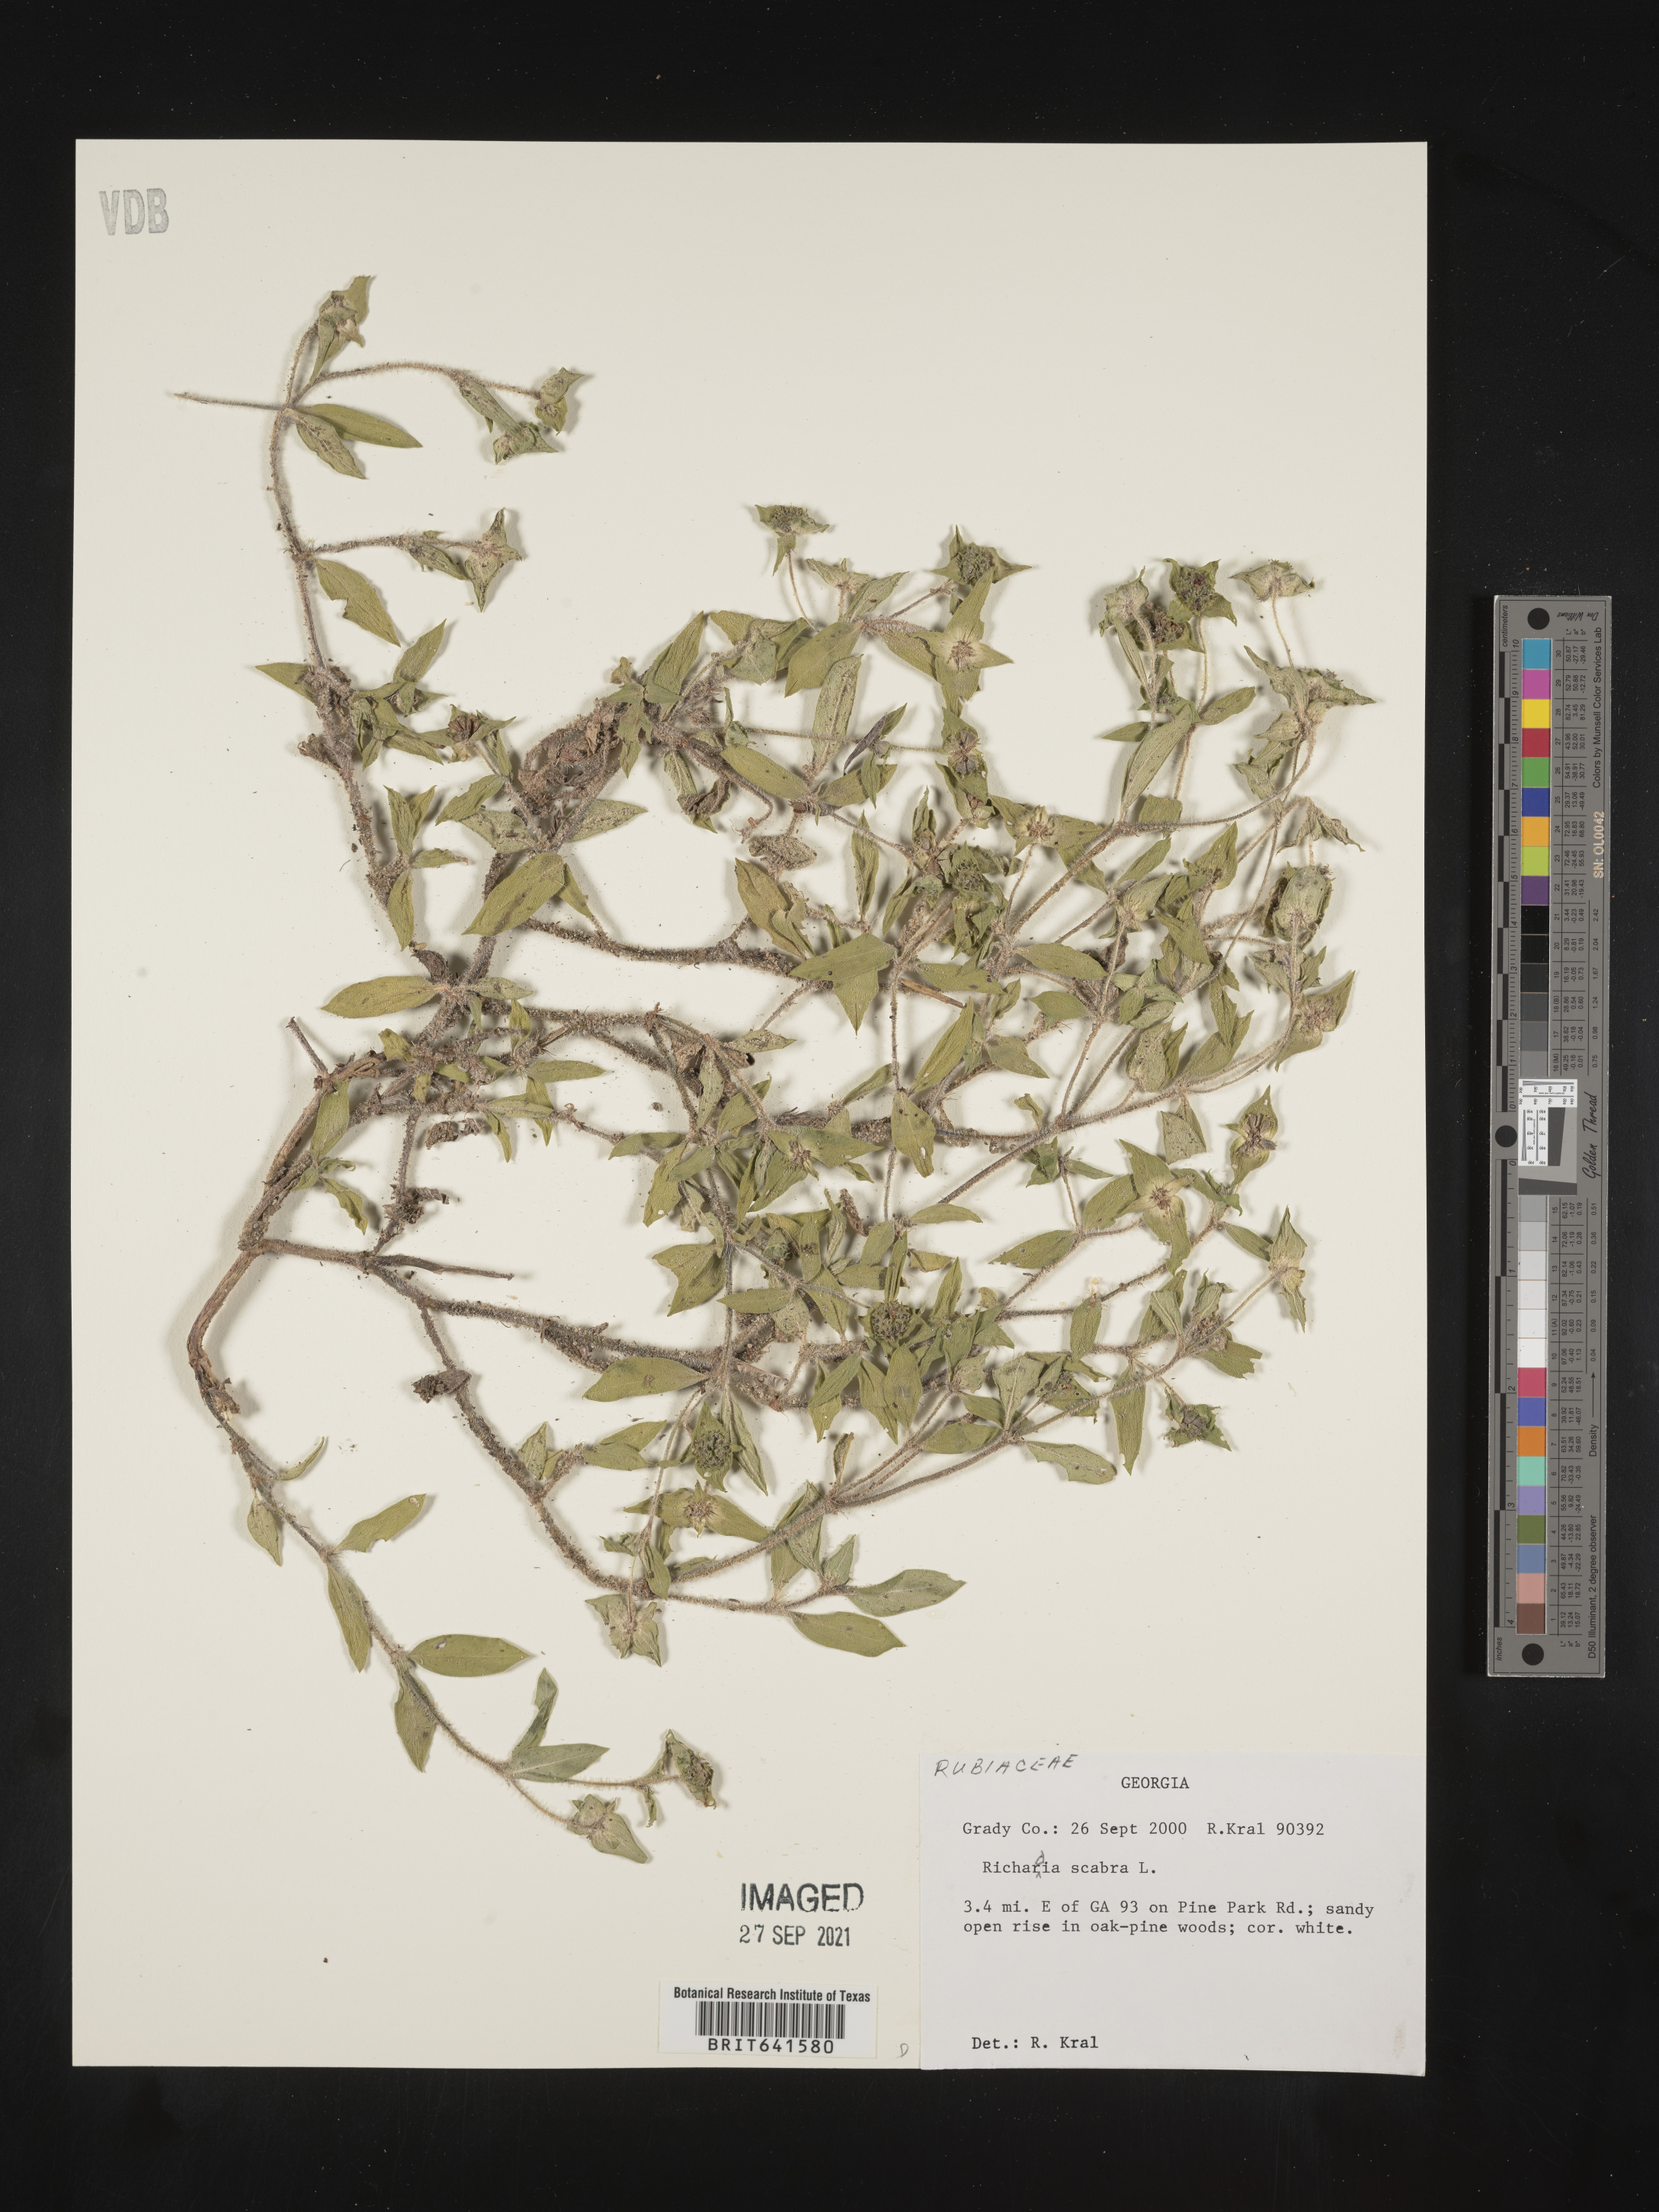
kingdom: Plantae
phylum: Tracheophyta
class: Magnoliopsida
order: Gentianales
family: Rubiaceae
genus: Richardia
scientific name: Richardia scabra
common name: Rough mexican clover
